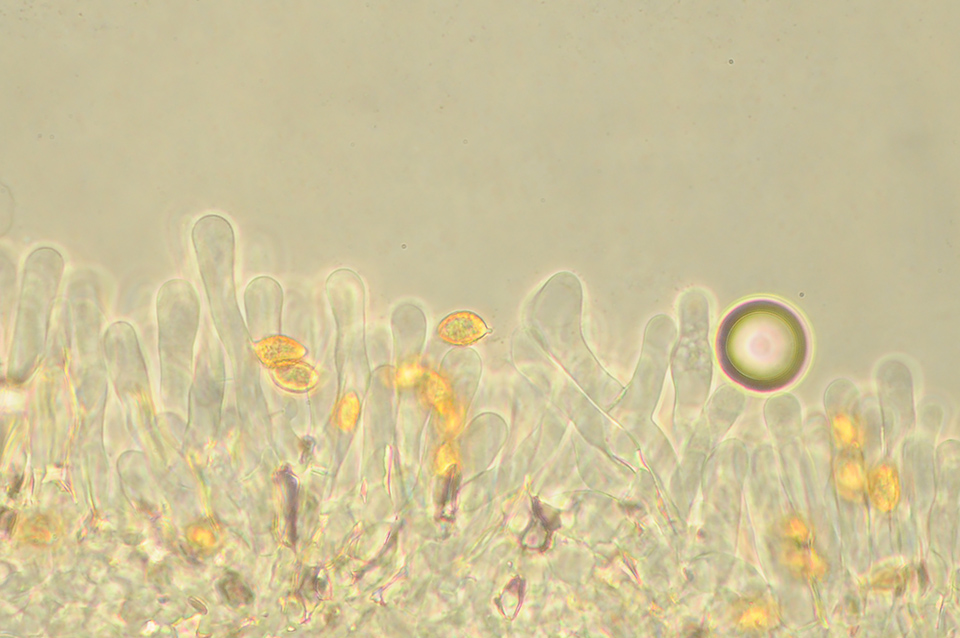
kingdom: Fungi
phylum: Basidiomycota
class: Agaricomycetes
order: Agaricales
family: Hymenogastraceae
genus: Naucoria
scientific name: Naucoria celluloderma
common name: enlig knaphat
